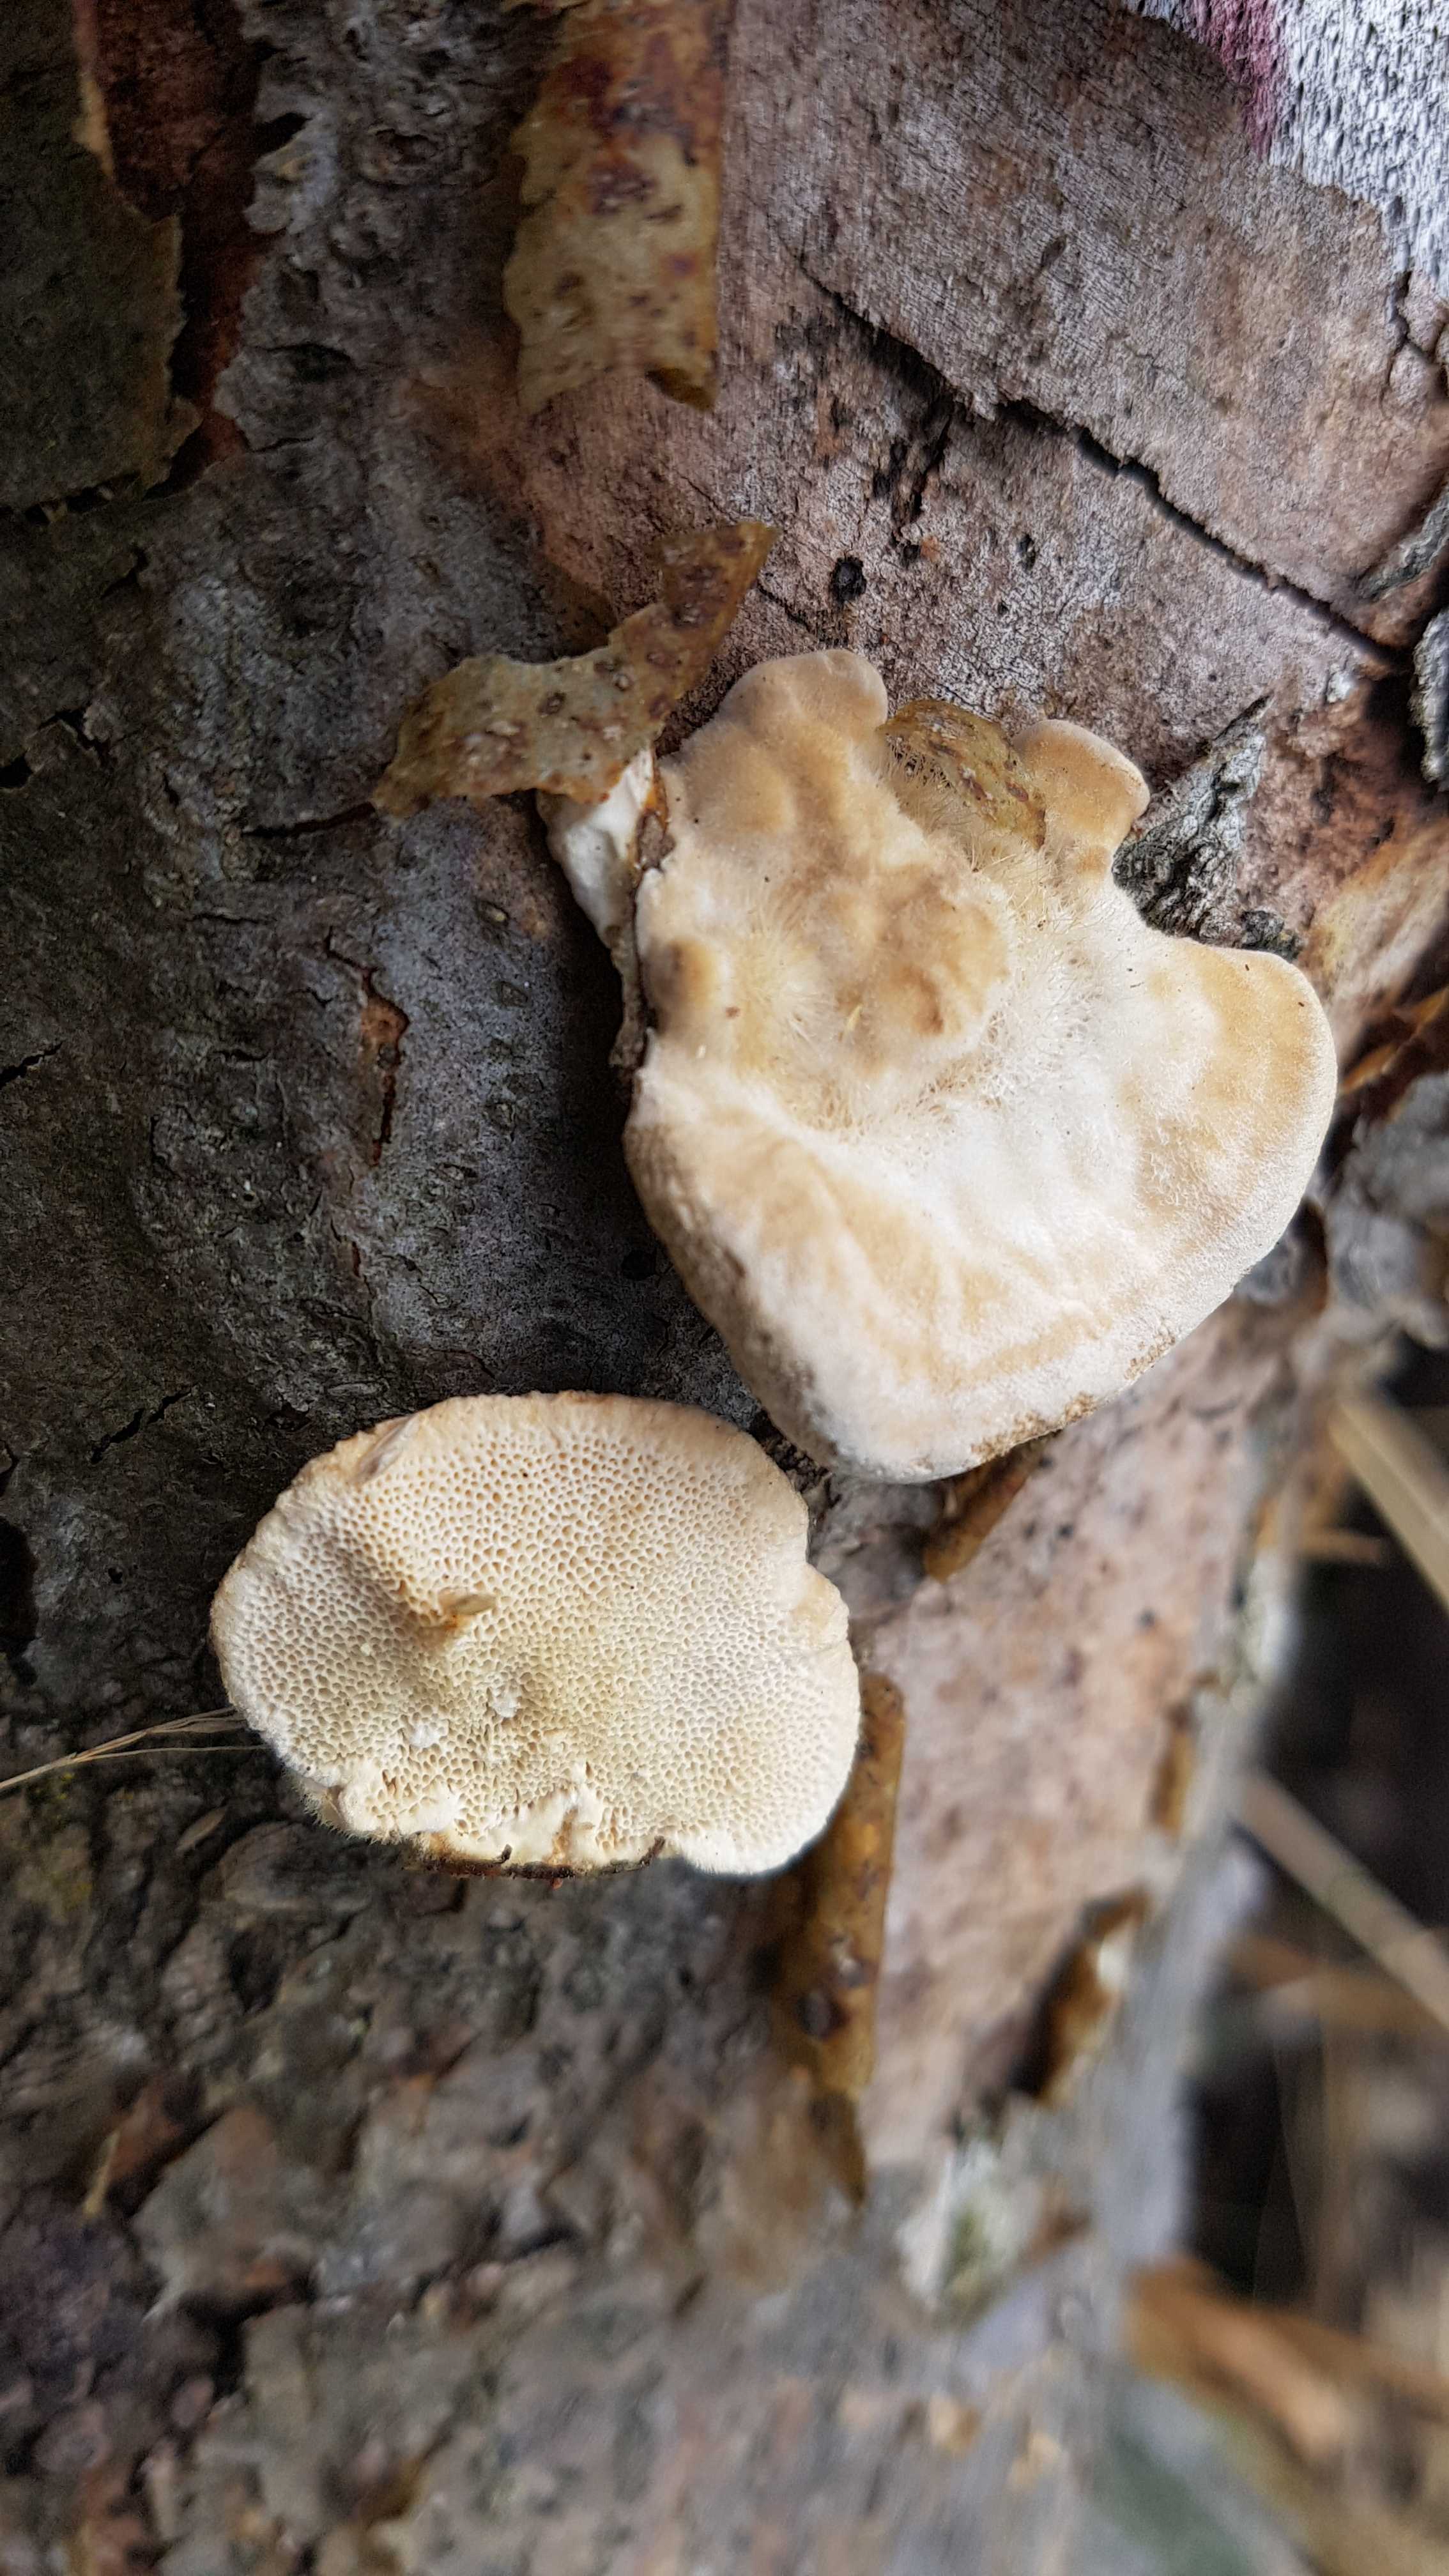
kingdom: Fungi
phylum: Basidiomycota
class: Agaricomycetes
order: Polyporales
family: Polyporaceae
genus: Trametes
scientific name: Trametes hirsuta
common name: håret læderporesvamp
